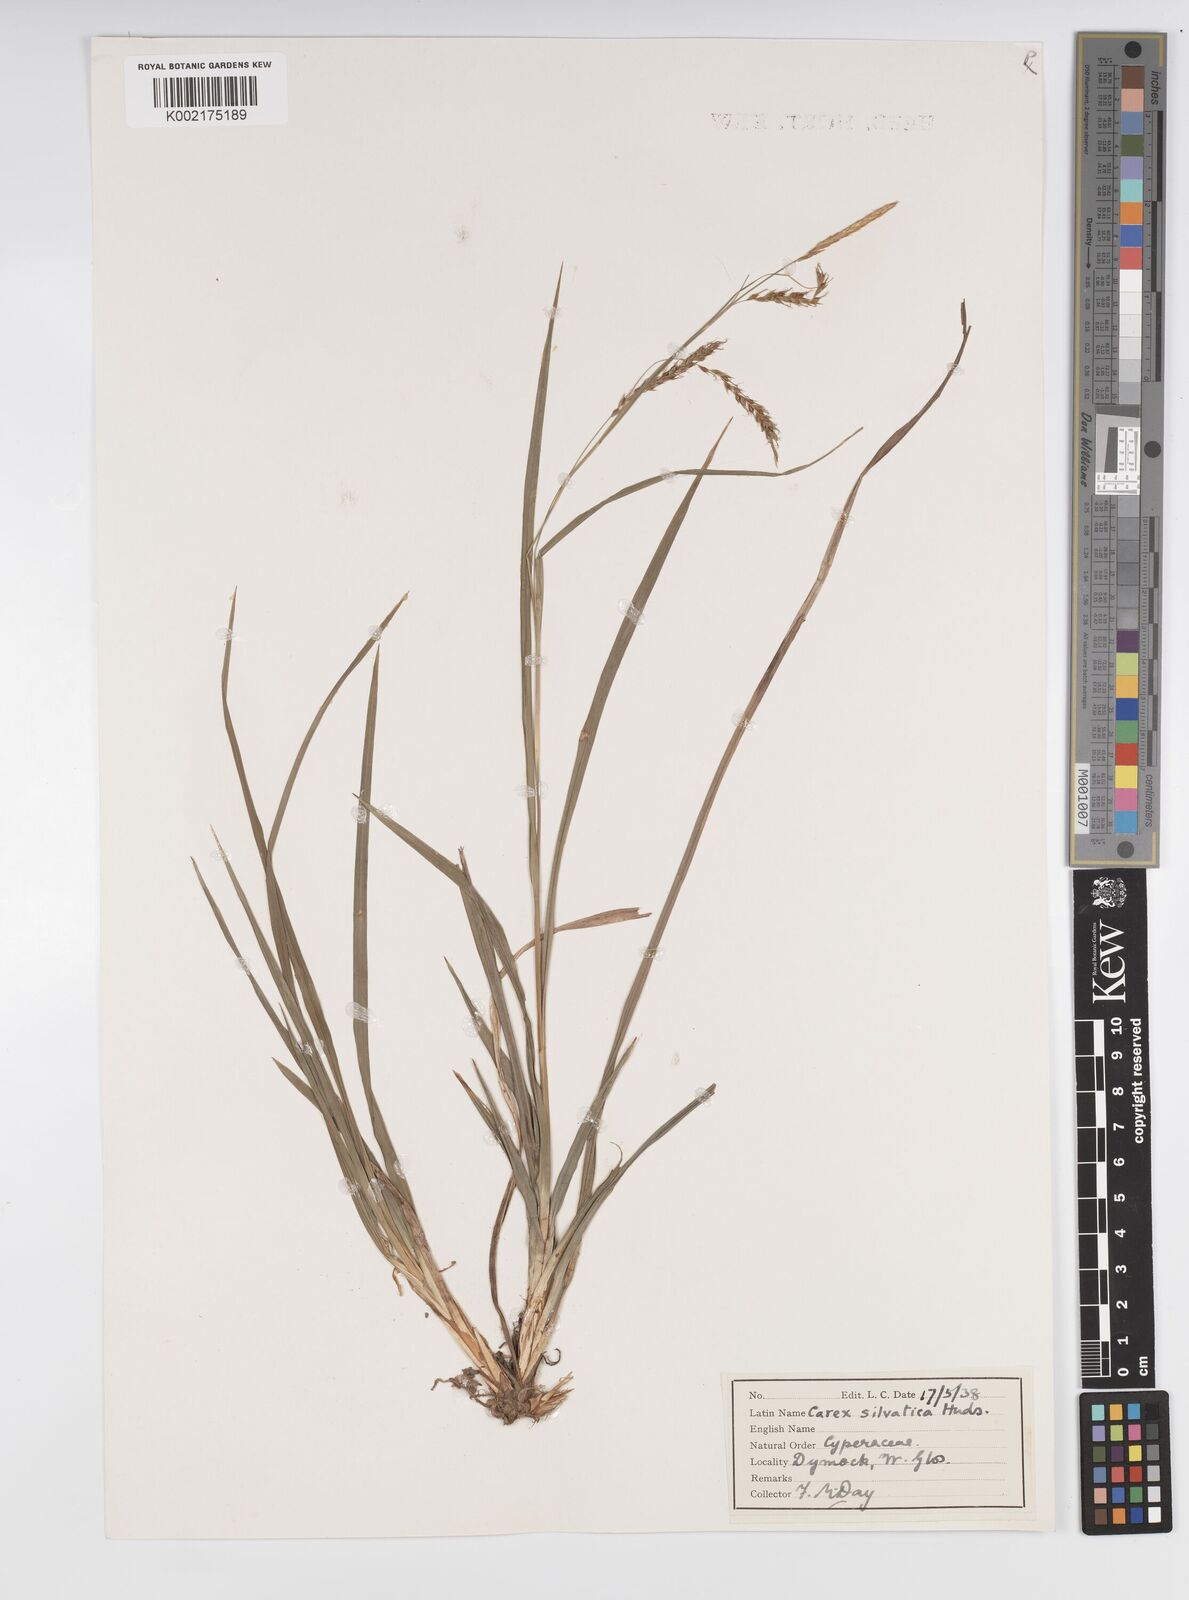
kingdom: Plantae
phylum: Tracheophyta
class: Liliopsida
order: Poales
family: Cyperaceae
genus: Carex
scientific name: Carex sylvatica
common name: Wood-sedge
